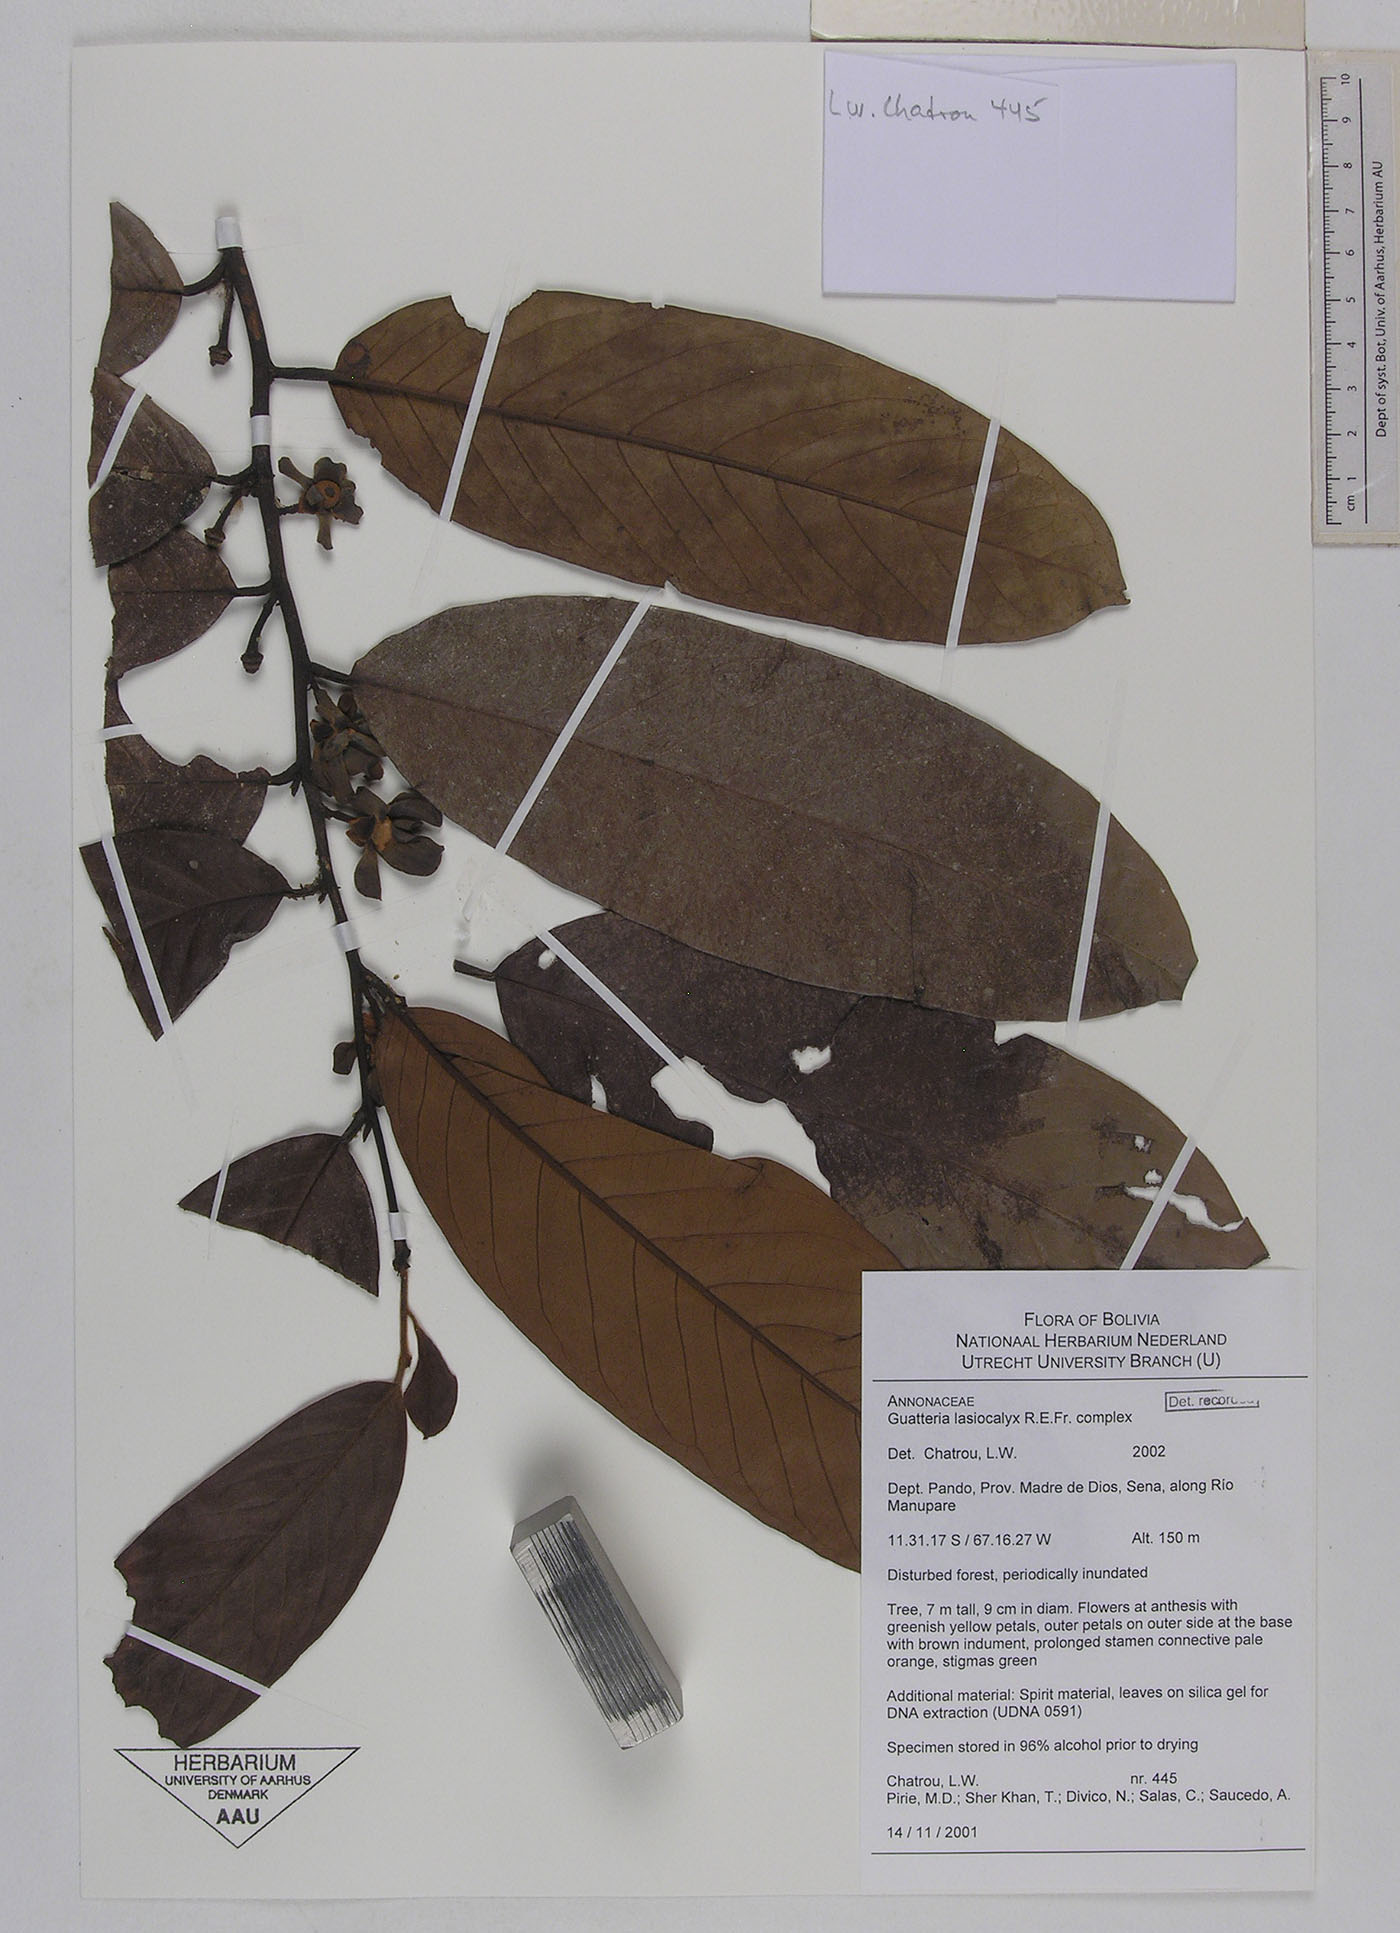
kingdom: Plantae
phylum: Tracheophyta
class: Magnoliopsida
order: Magnoliales
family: Annonaceae
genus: Guatteria
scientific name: Guatteria punctata
